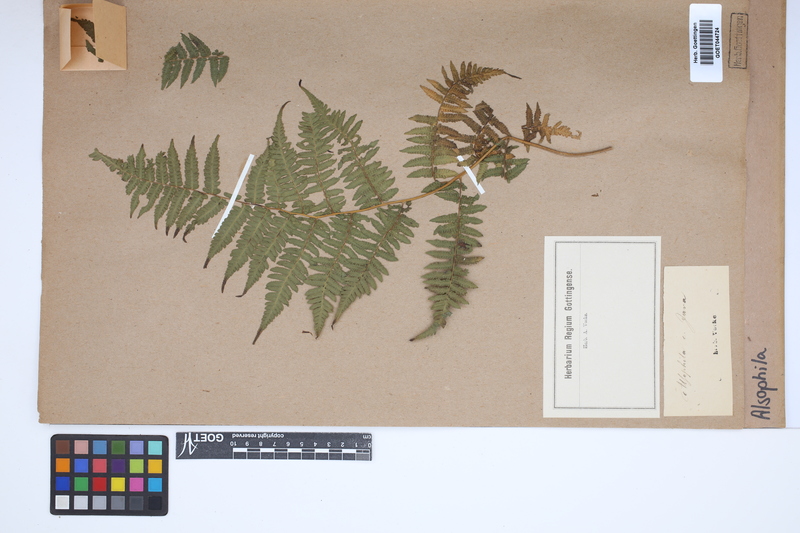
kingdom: Plantae
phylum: Tracheophyta
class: Polypodiopsida
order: Cyatheales
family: Cyatheaceae
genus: Alsophila
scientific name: Alsophila
